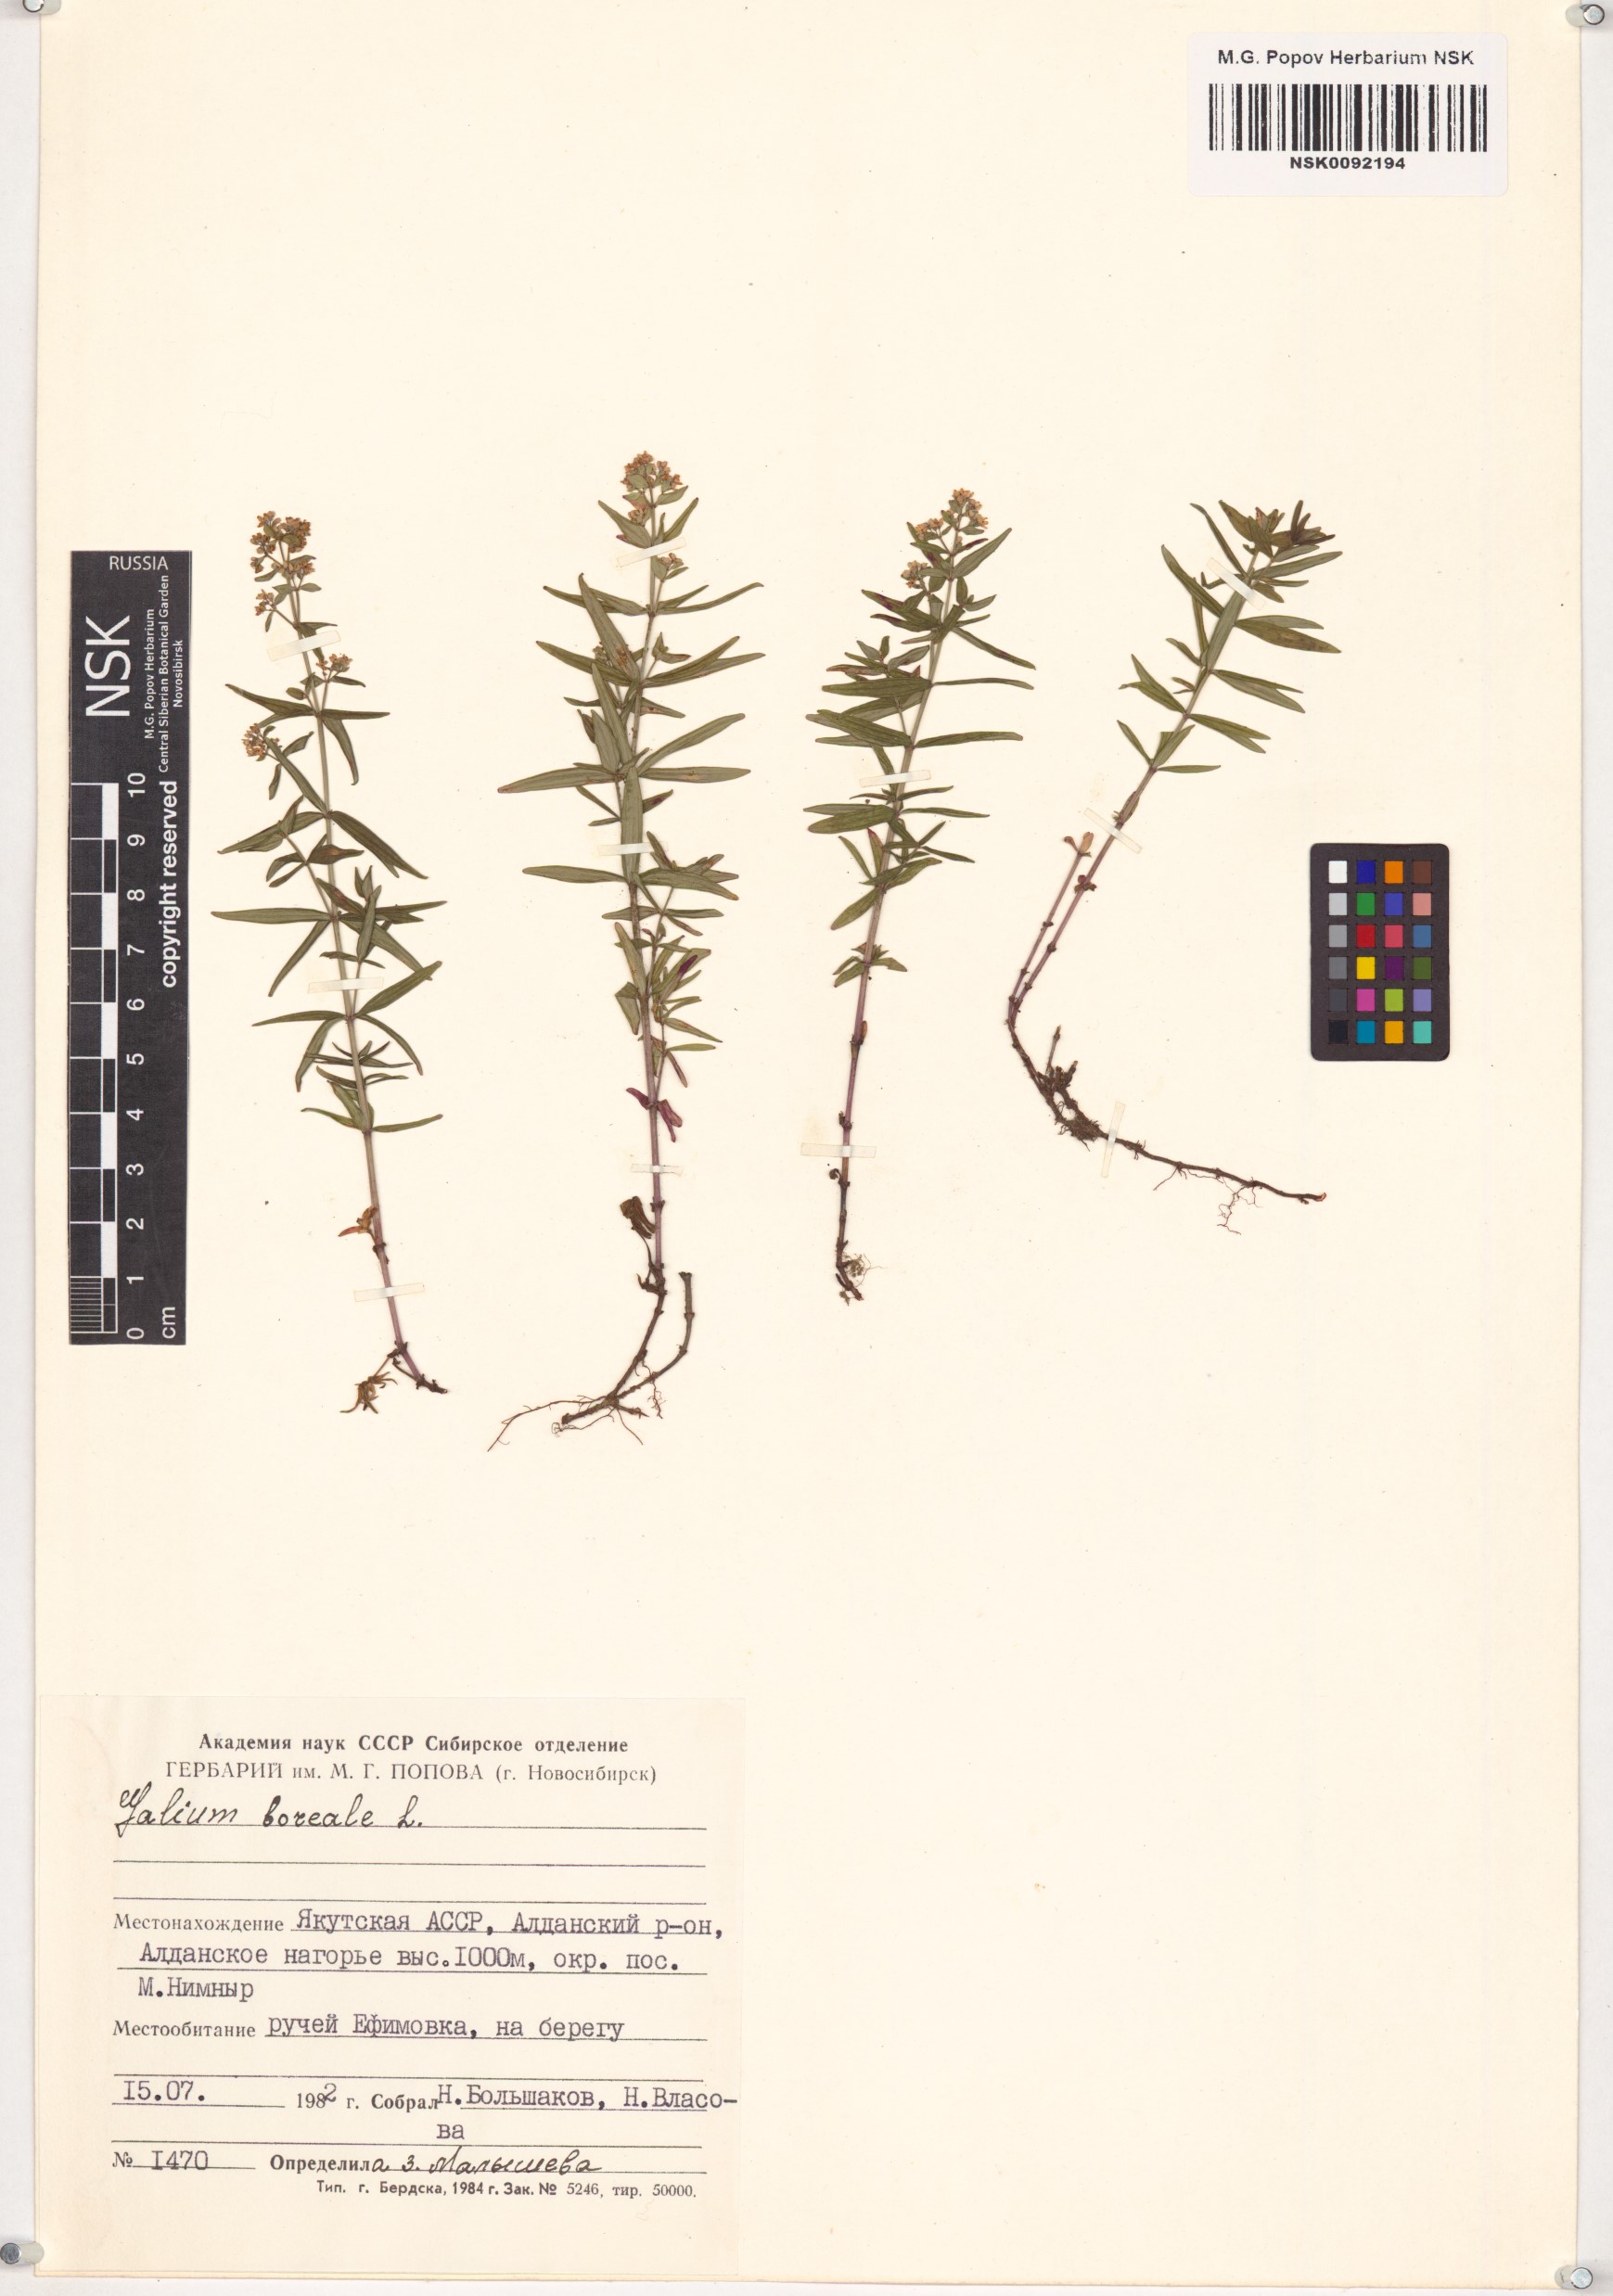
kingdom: Plantae
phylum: Tracheophyta
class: Magnoliopsida
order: Gentianales
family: Rubiaceae
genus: Galium
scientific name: Galium boreale
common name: Northern bedstraw
